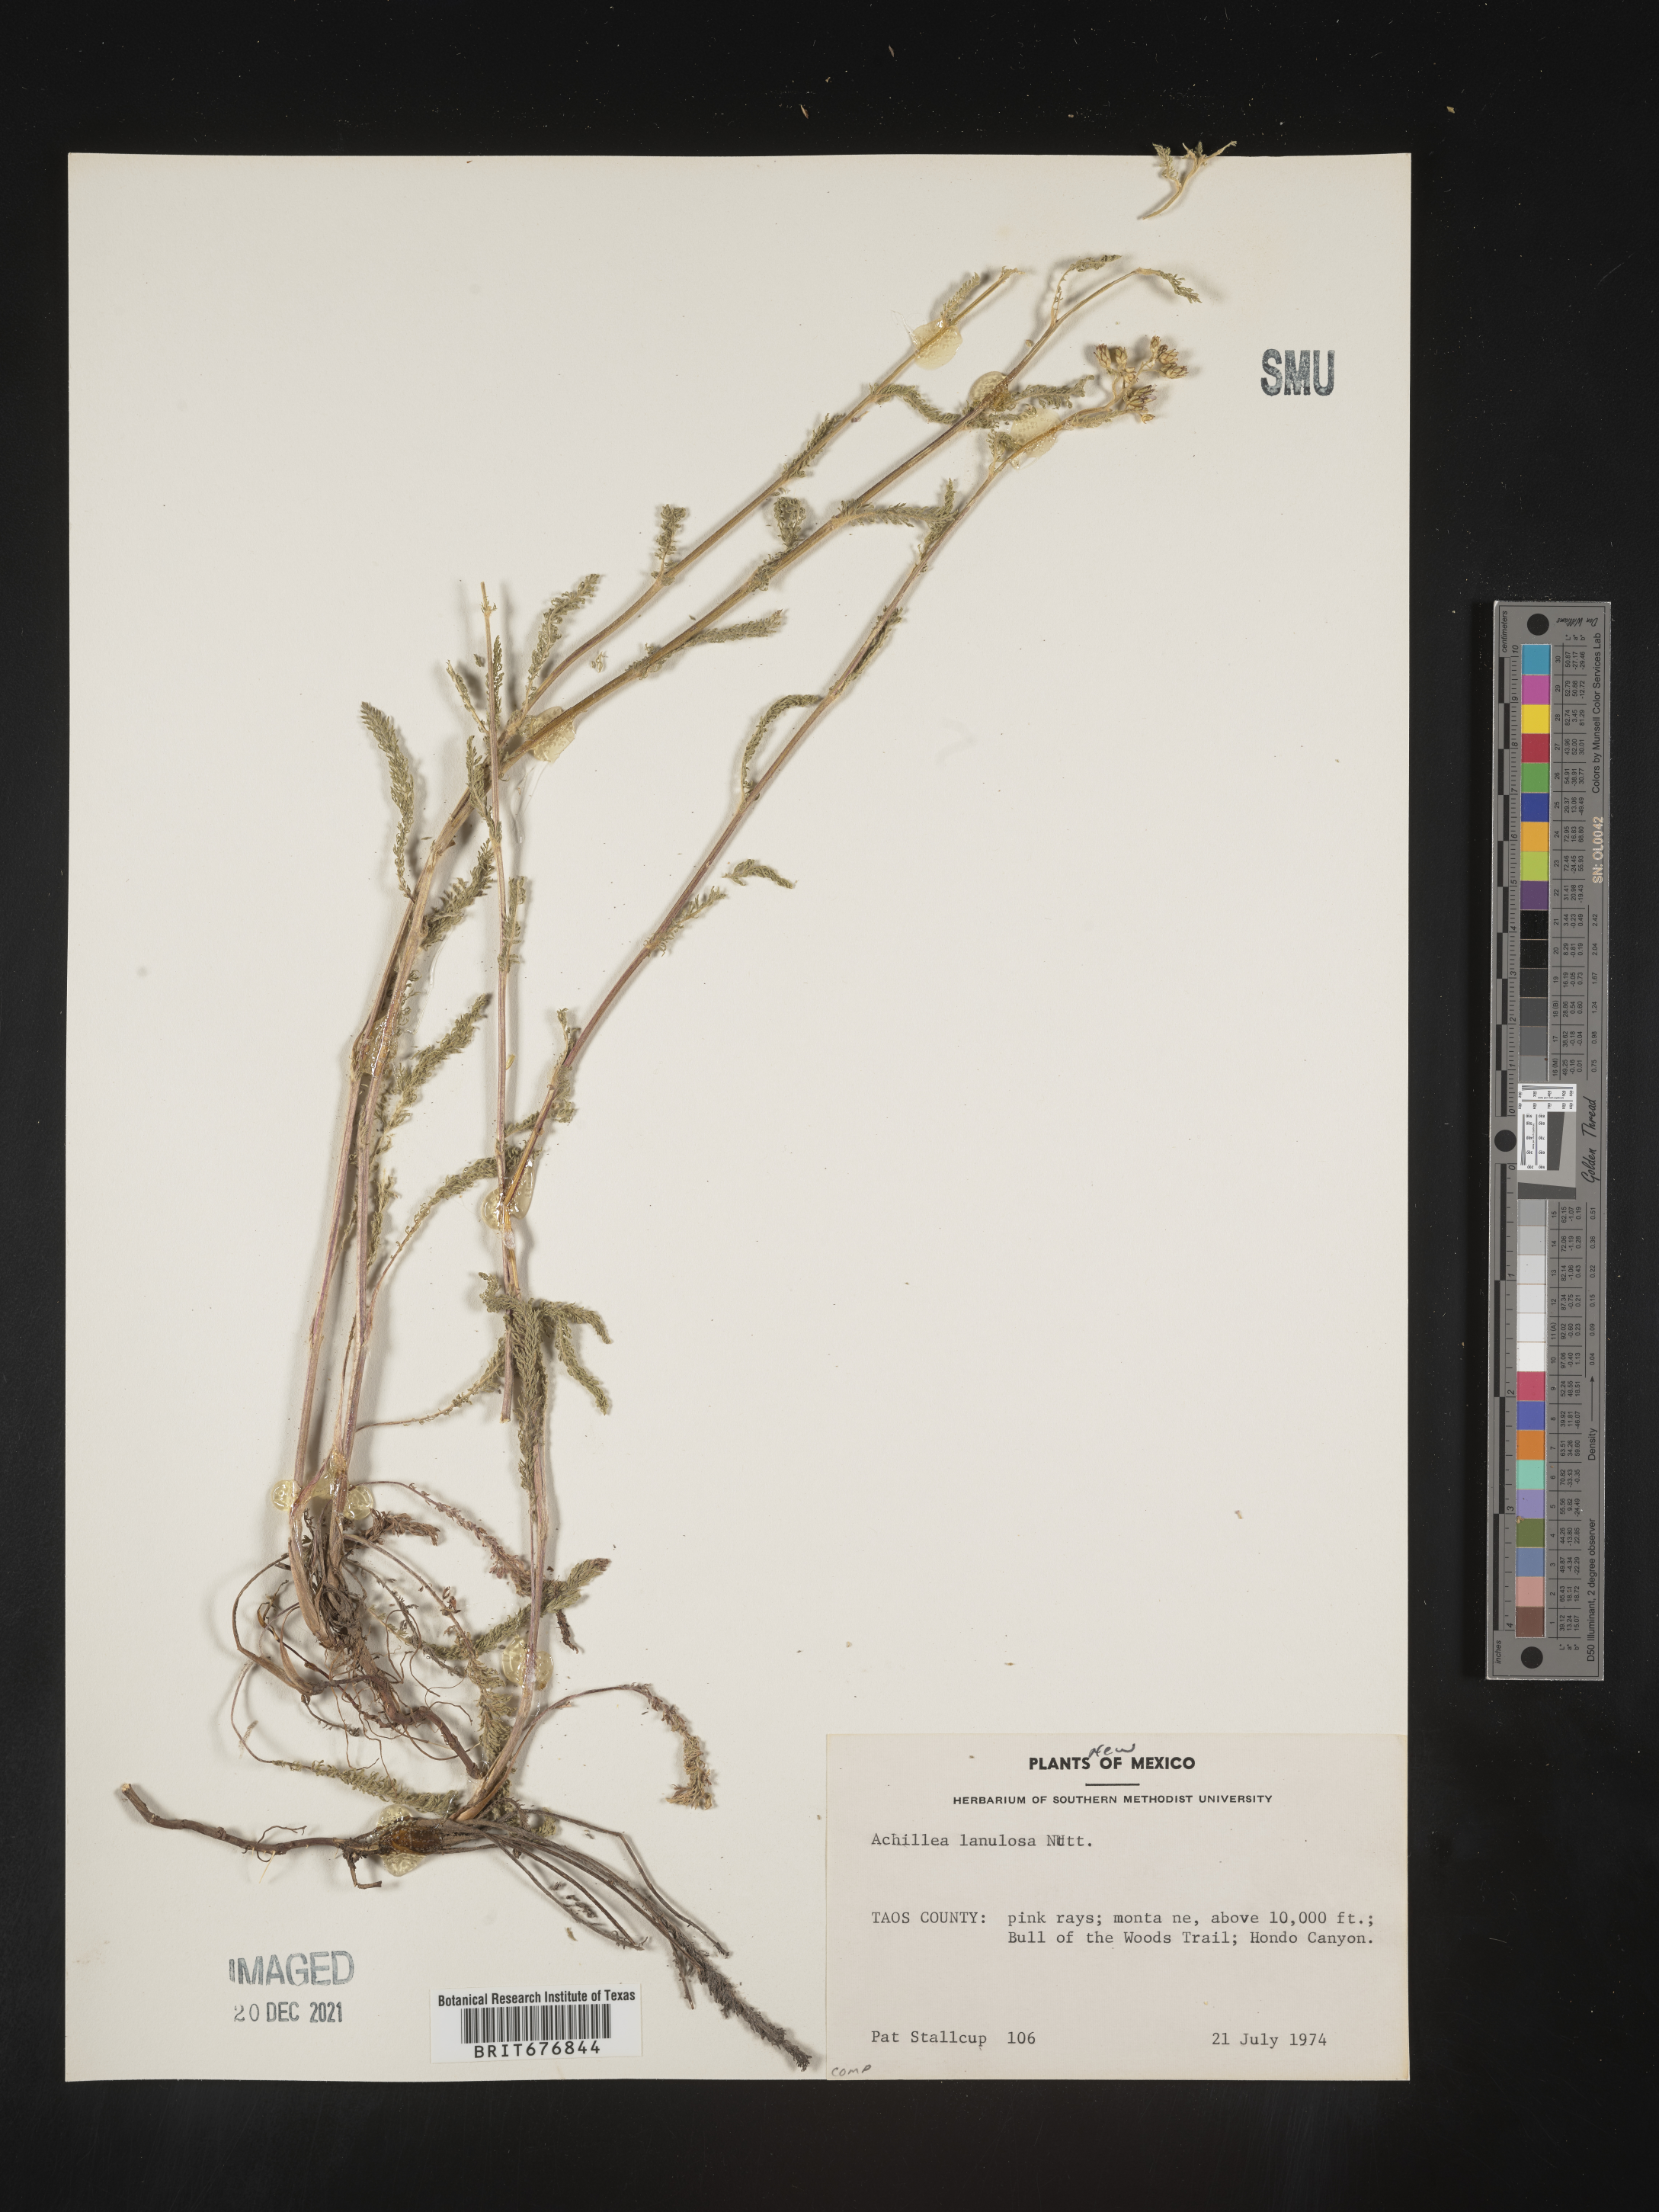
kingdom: Plantae
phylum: Tracheophyta
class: Magnoliopsida
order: Asterales
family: Asteraceae
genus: Achillea
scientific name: Achillea millefolium
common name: Yarrow
